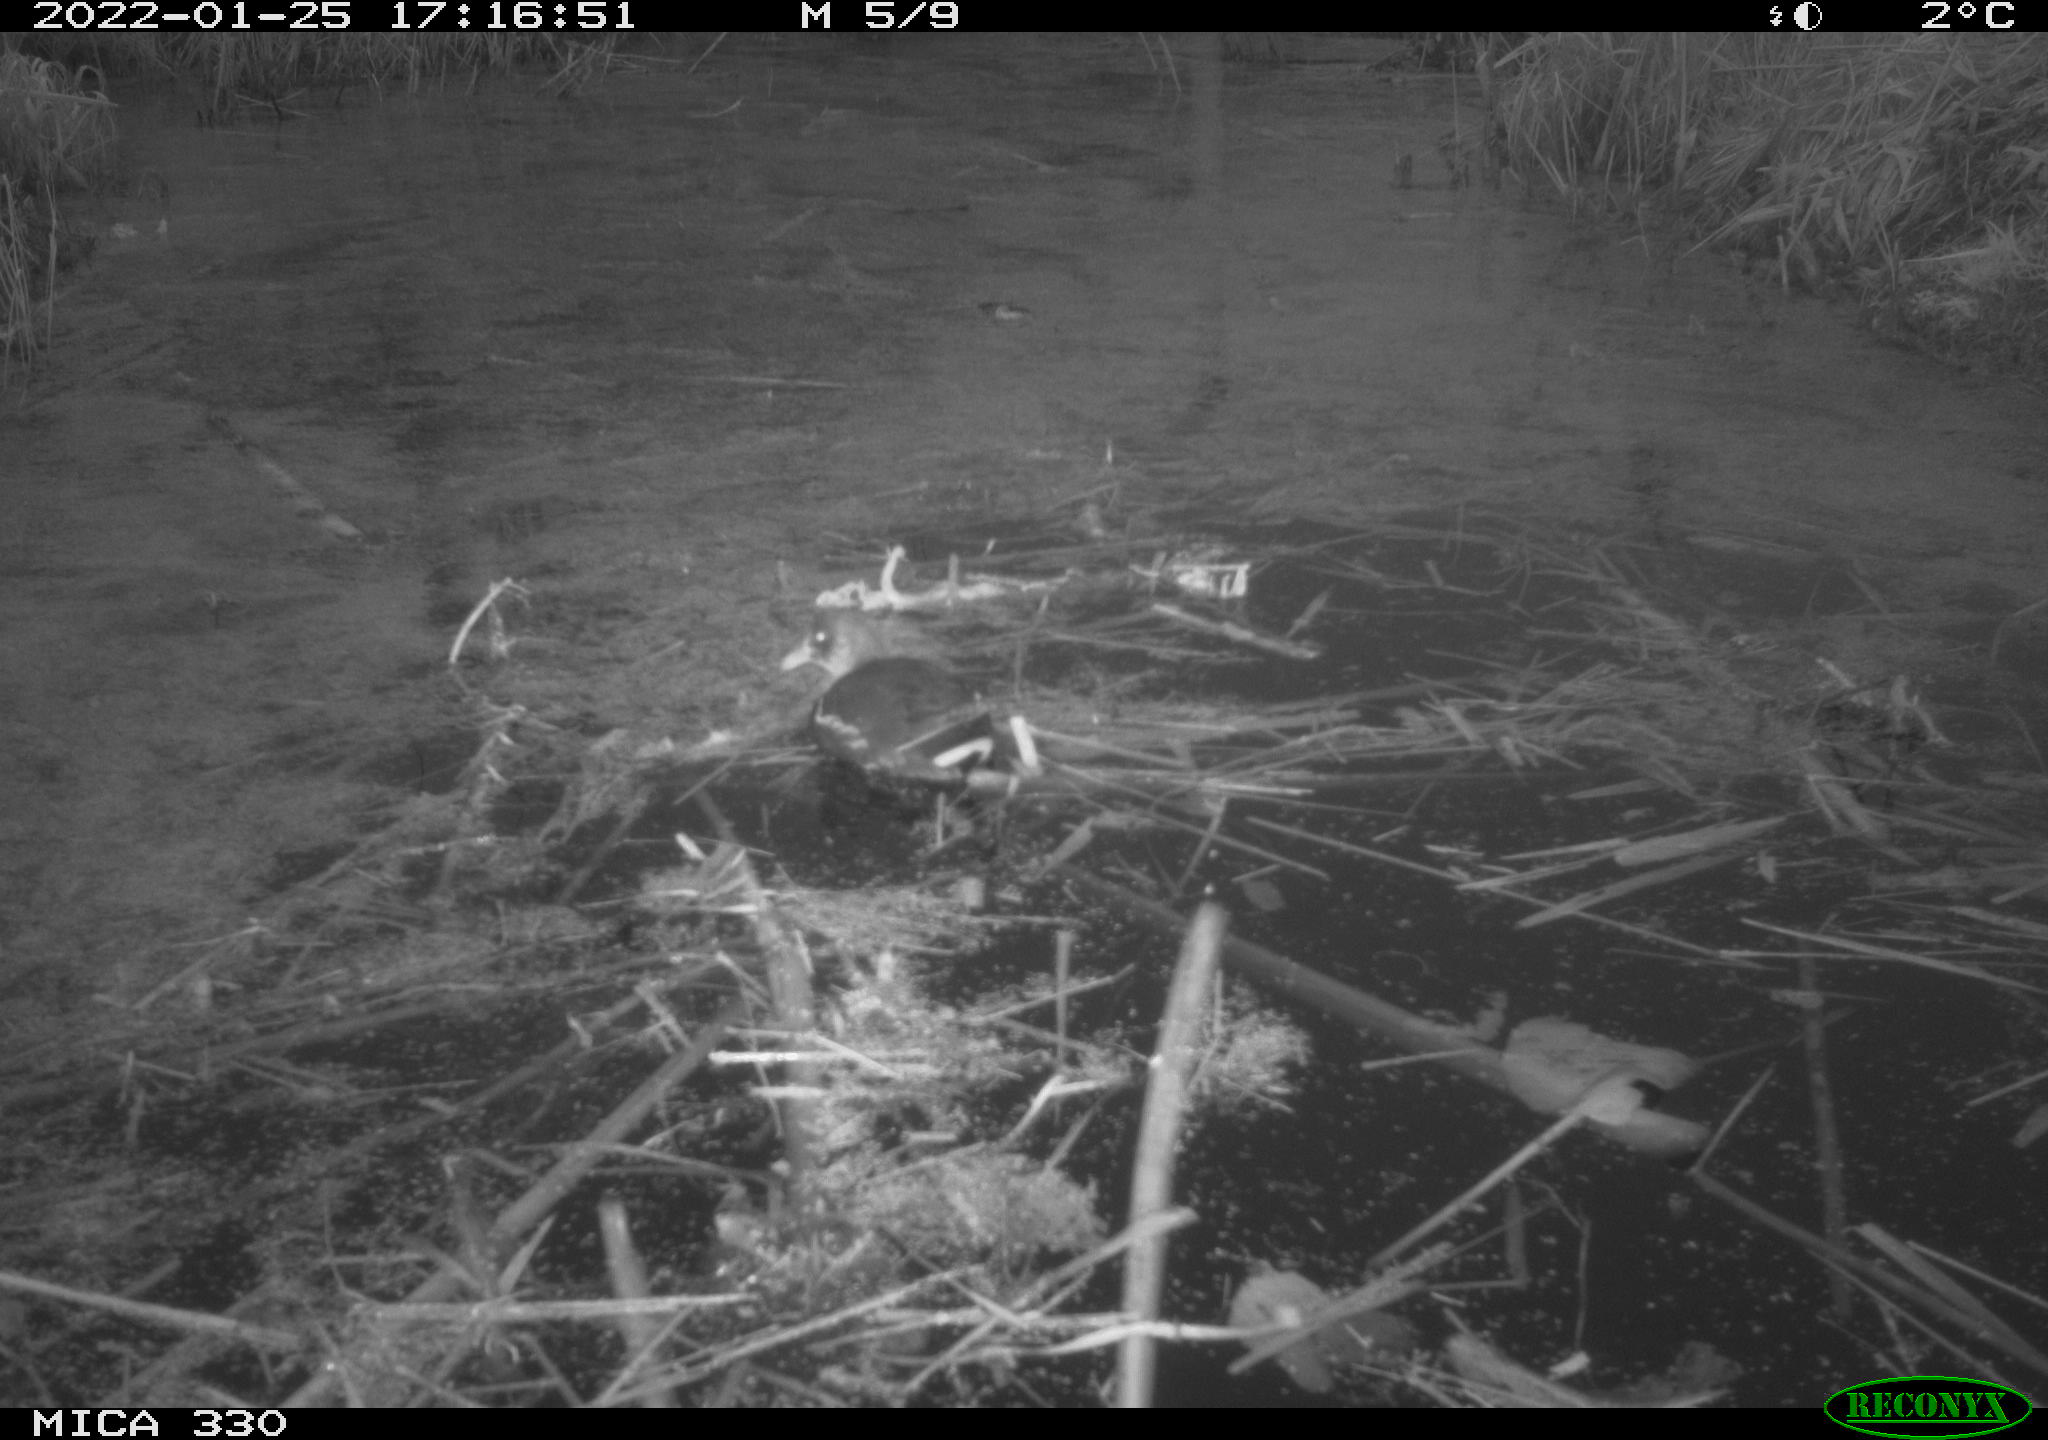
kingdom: Animalia
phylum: Chordata
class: Aves
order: Gruiformes
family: Rallidae
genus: Gallinula
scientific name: Gallinula chloropus
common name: Common moorhen
